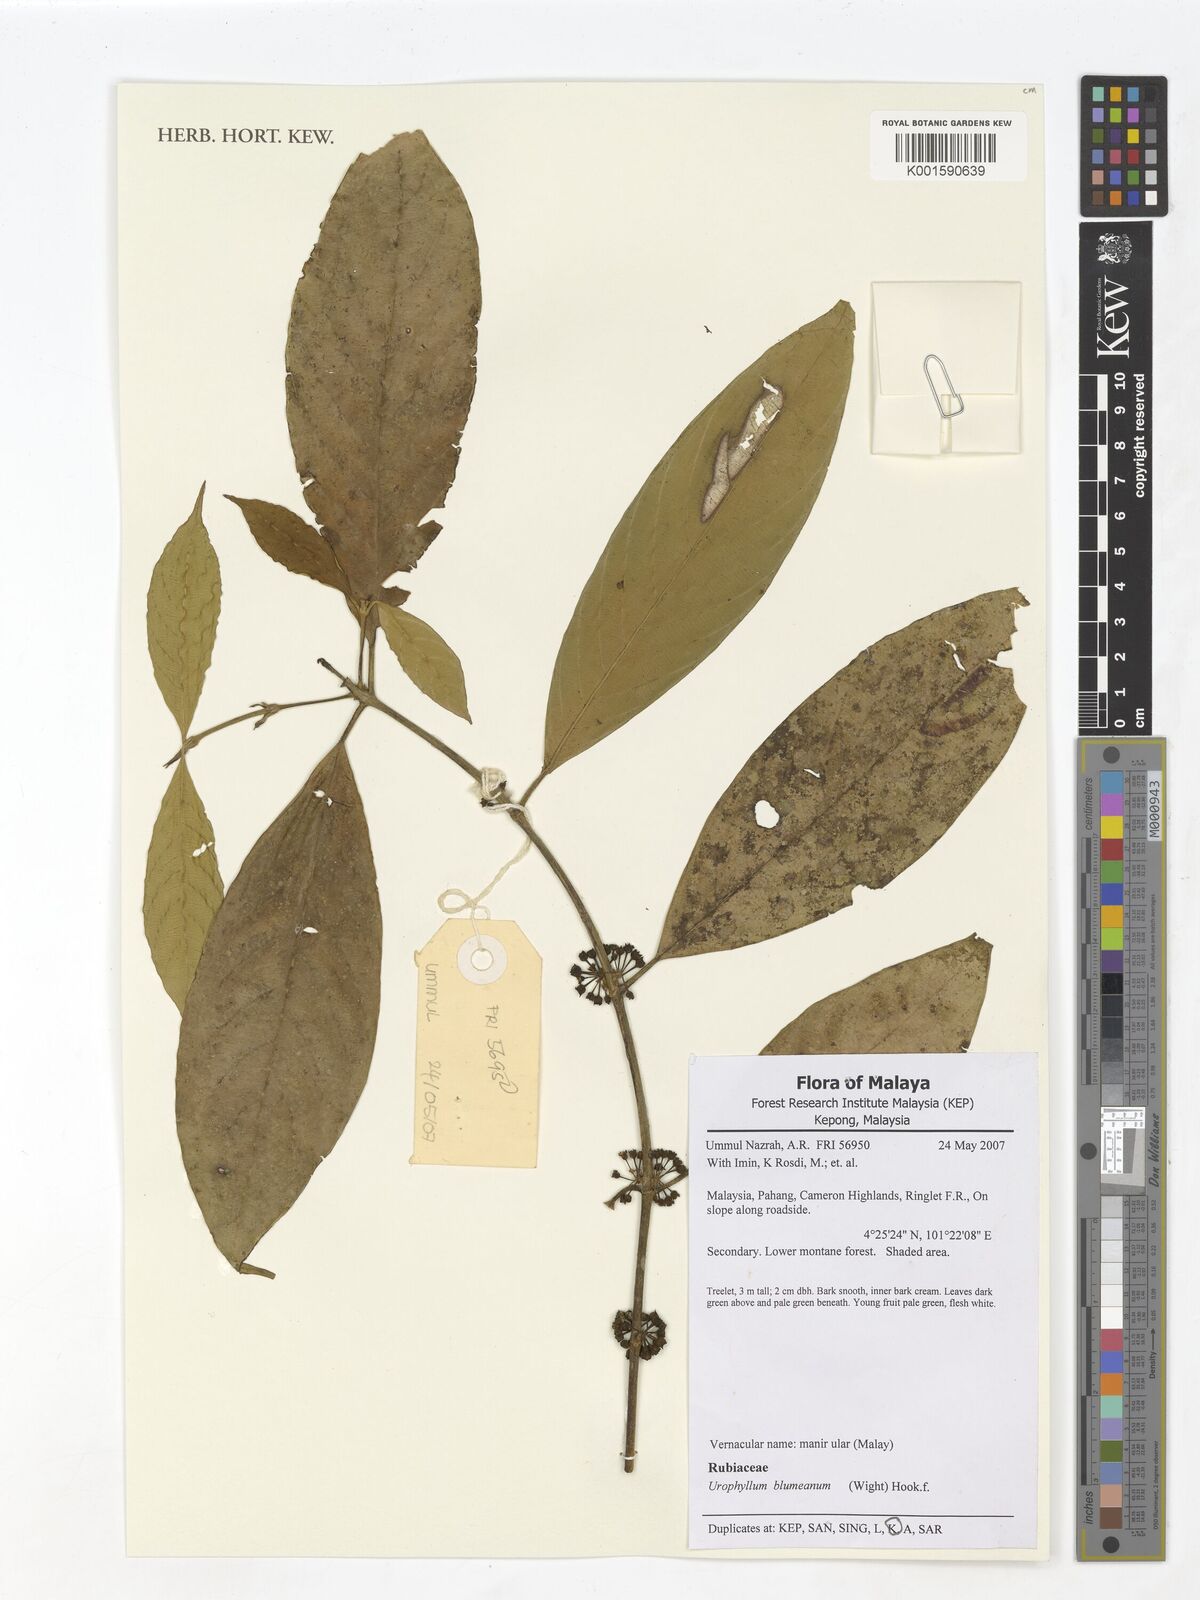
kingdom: Plantae
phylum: Tracheophyta
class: Magnoliopsida
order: Gentianales
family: Rubiaceae
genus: Urophyllum
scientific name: Urophyllum arboreum
